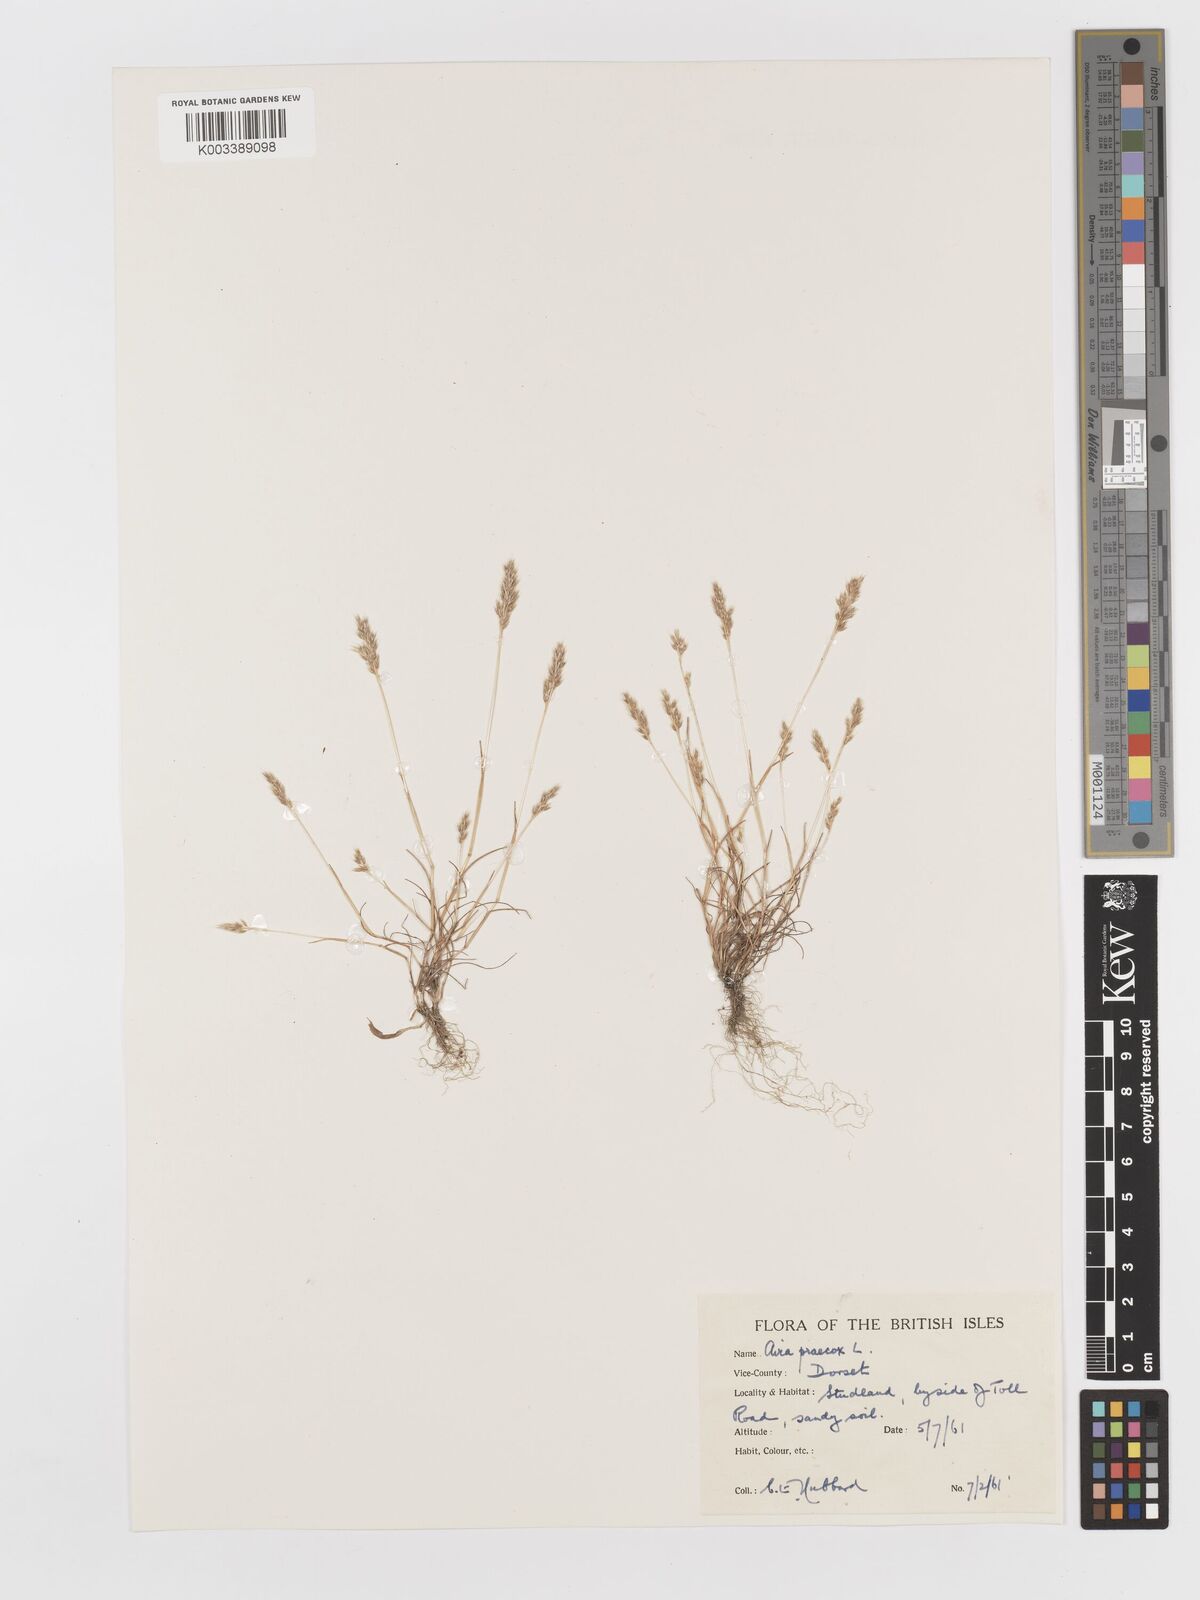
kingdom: Plantae
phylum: Tracheophyta
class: Liliopsida
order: Poales
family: Poaceae
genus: Aira
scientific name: Aira praecox
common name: Early hair-grass
